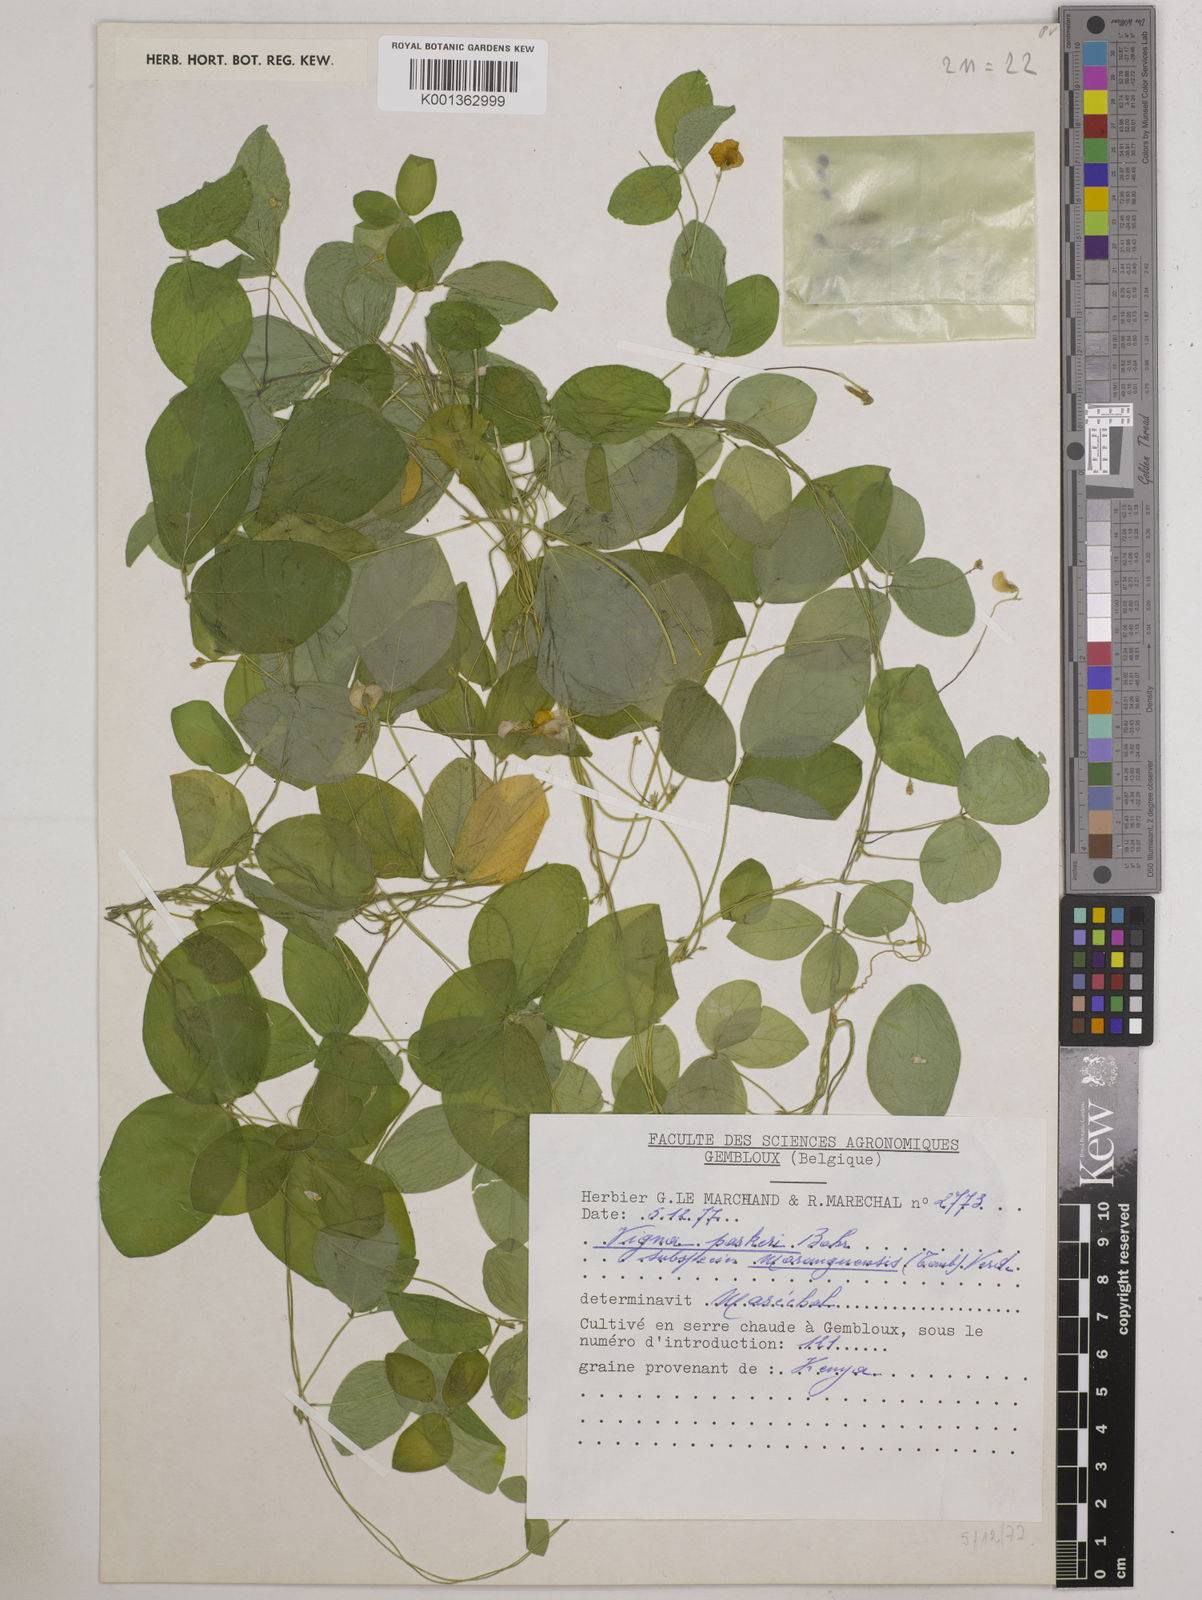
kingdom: Plantae
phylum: Tracheophyta
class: Magnoliopsida
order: Fabales
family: Fabaceae
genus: Vigna
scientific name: Vigna
